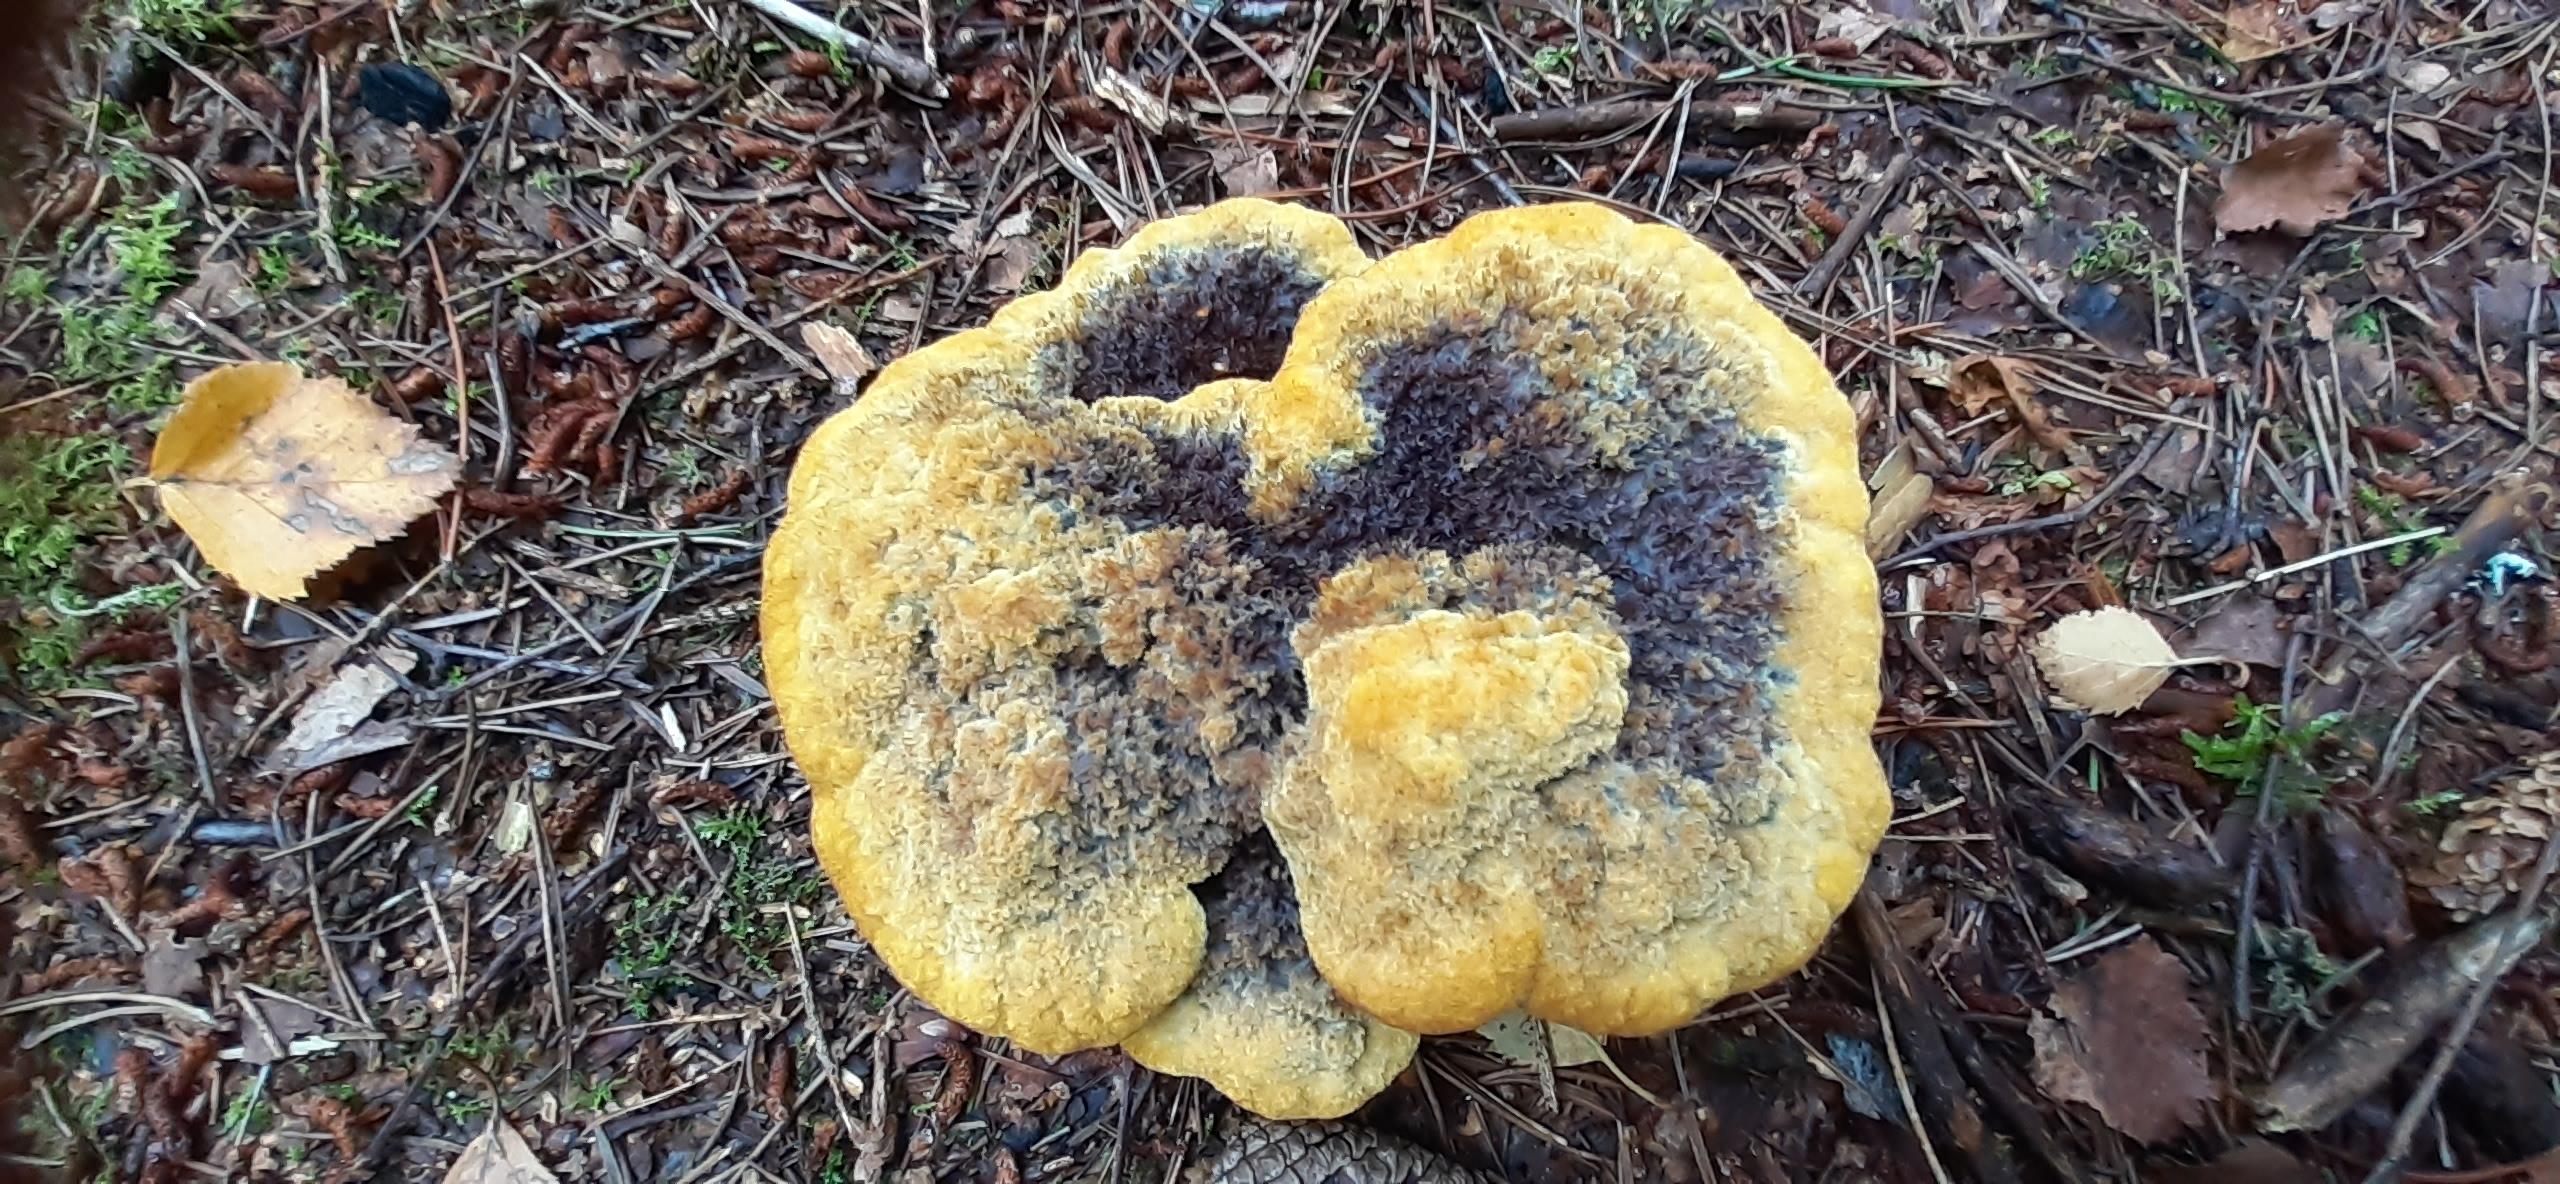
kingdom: Fungi
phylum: Basidiomycota
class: Agaricomycetes
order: Polyporales
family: Laetiporaceae
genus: Phaeolus
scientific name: Phaeolus schweinitzii
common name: brunporesvamp
